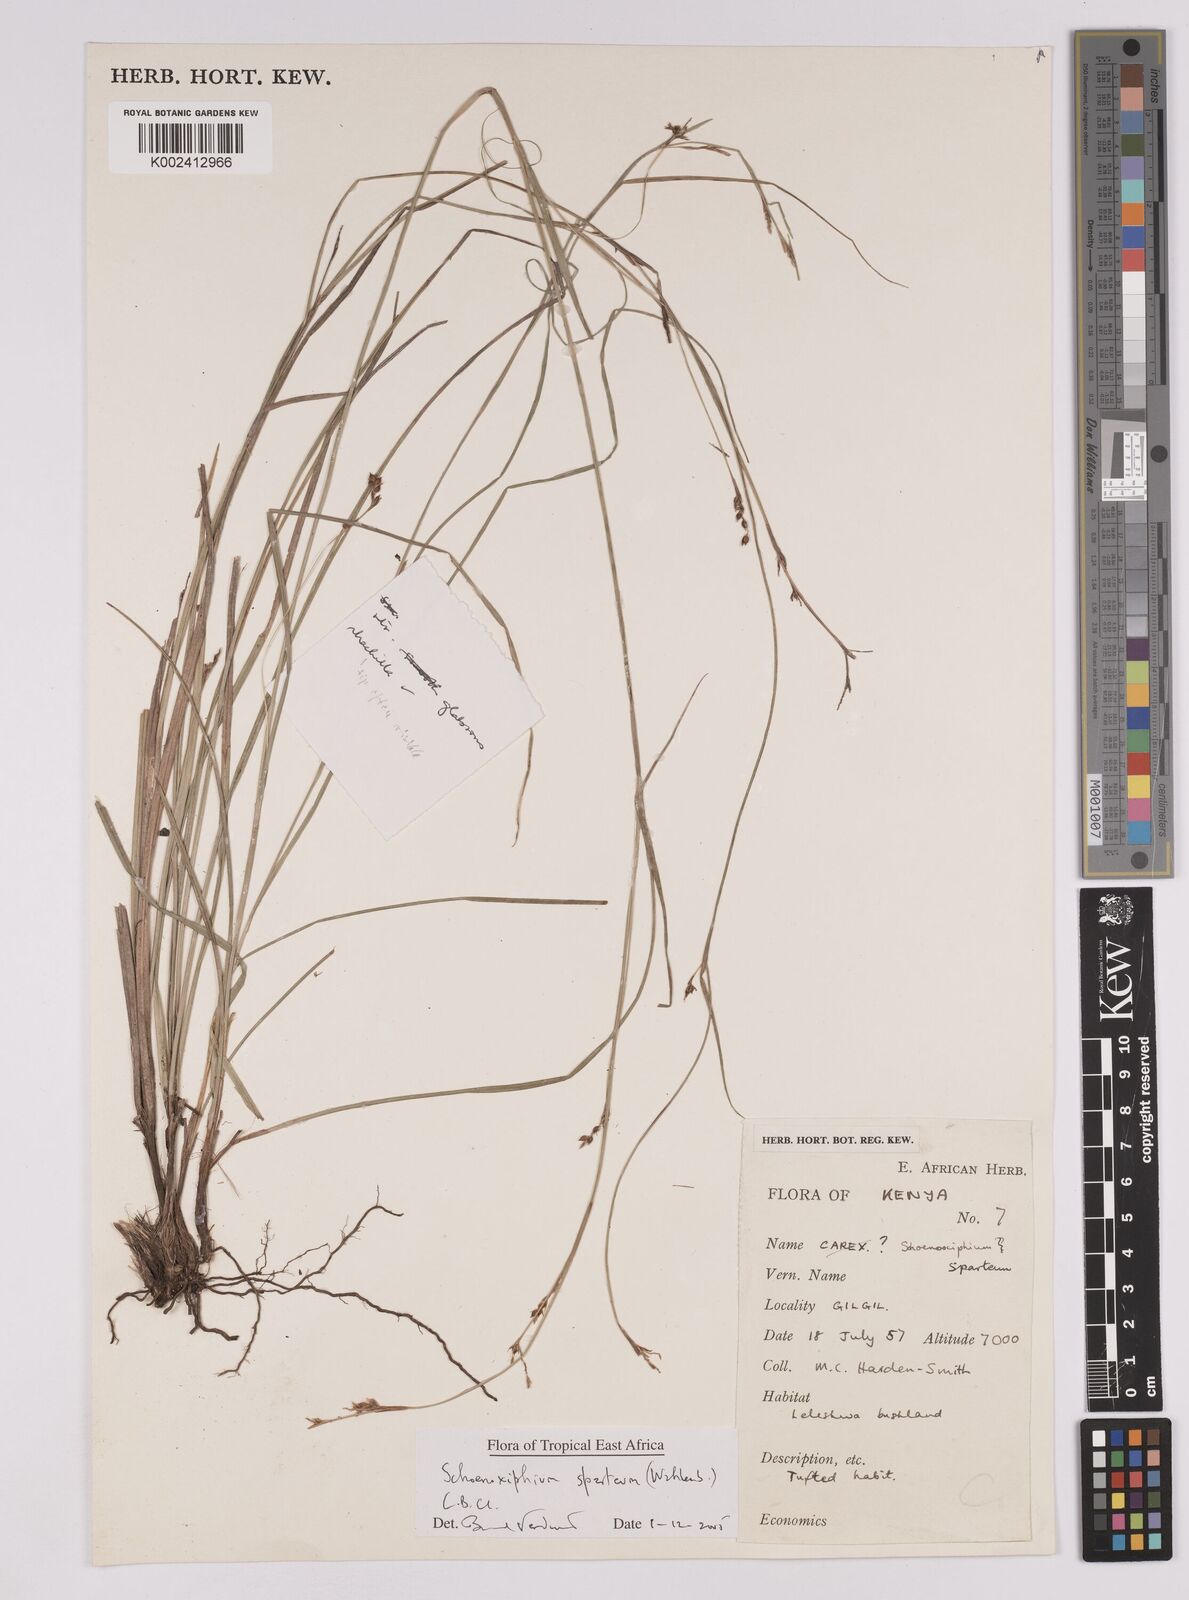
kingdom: Plantae
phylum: Tracheophyta
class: Liliopsida
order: Poales
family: Cyperaceae
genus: Carex
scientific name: Carex schimperiana
